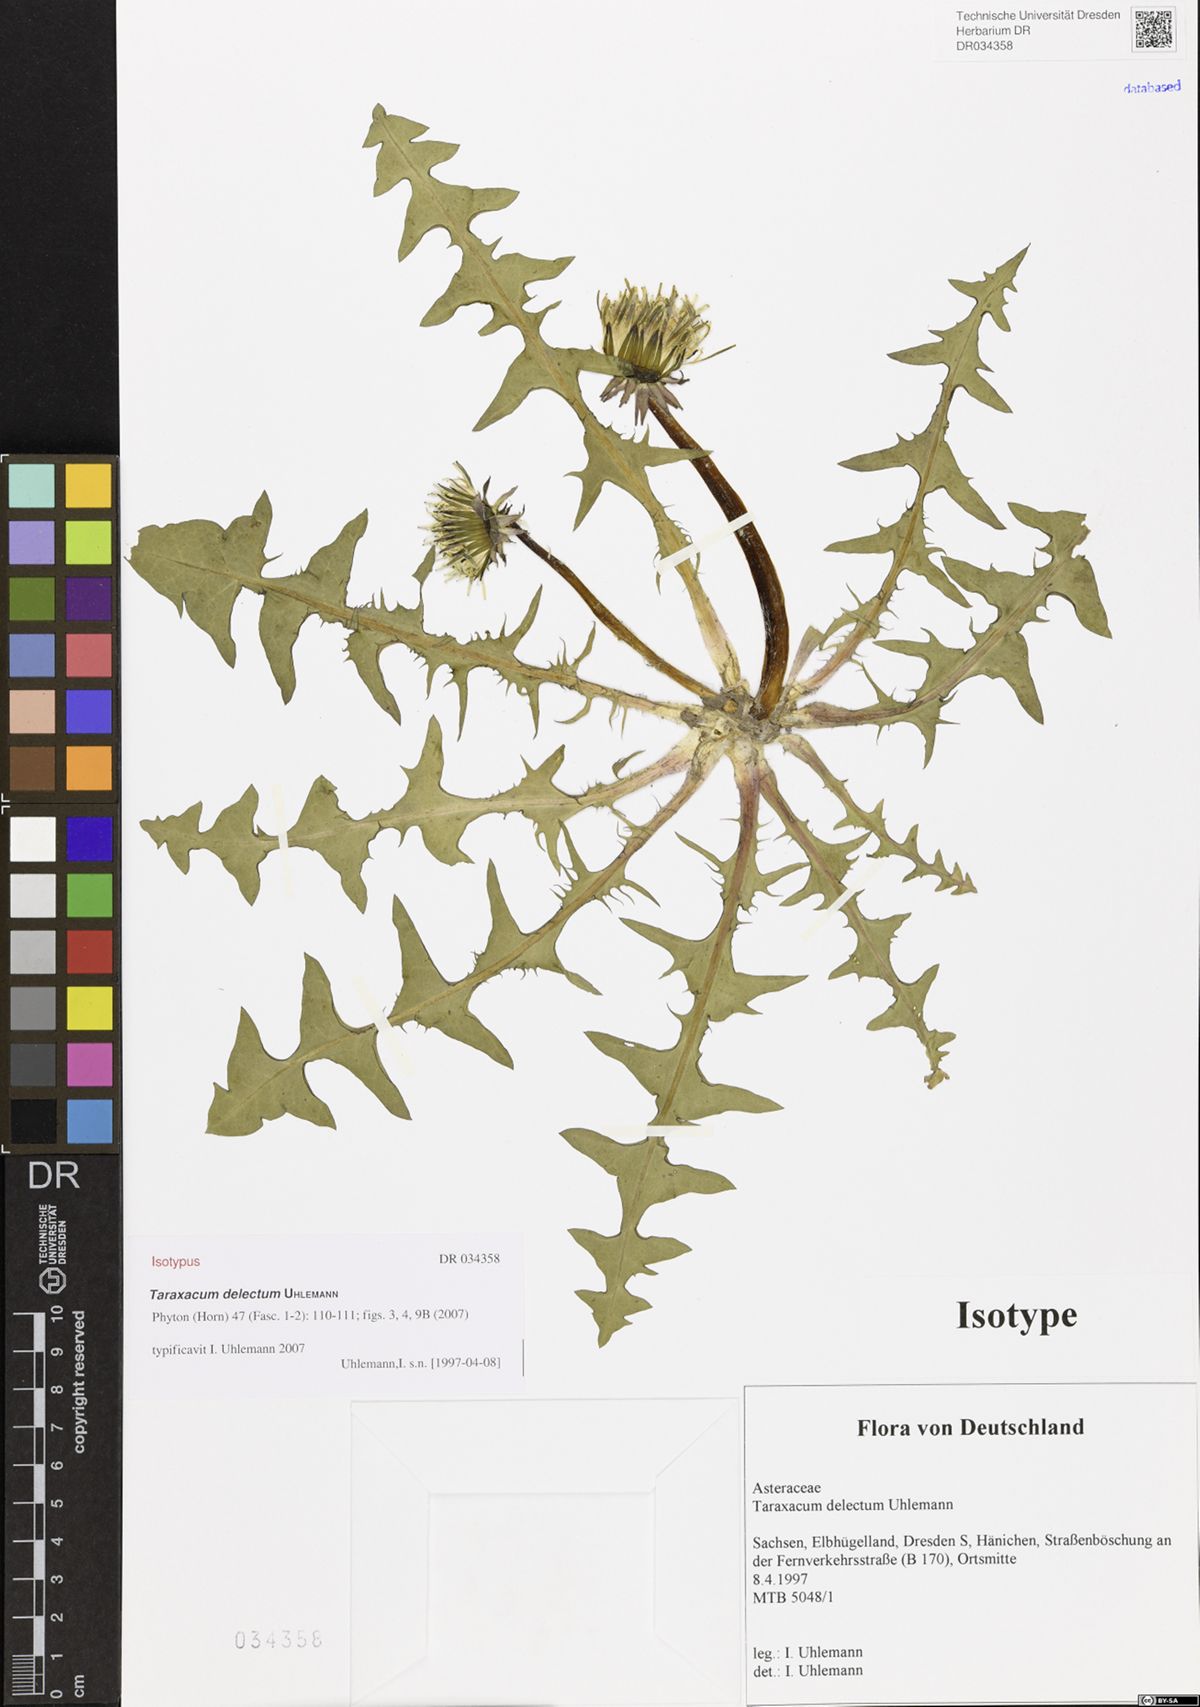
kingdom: Plantae
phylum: Tracheophyta
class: Magnoliopsida
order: Asterales
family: Asteraceae
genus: Taraxacum
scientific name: Taraxacum delectum
